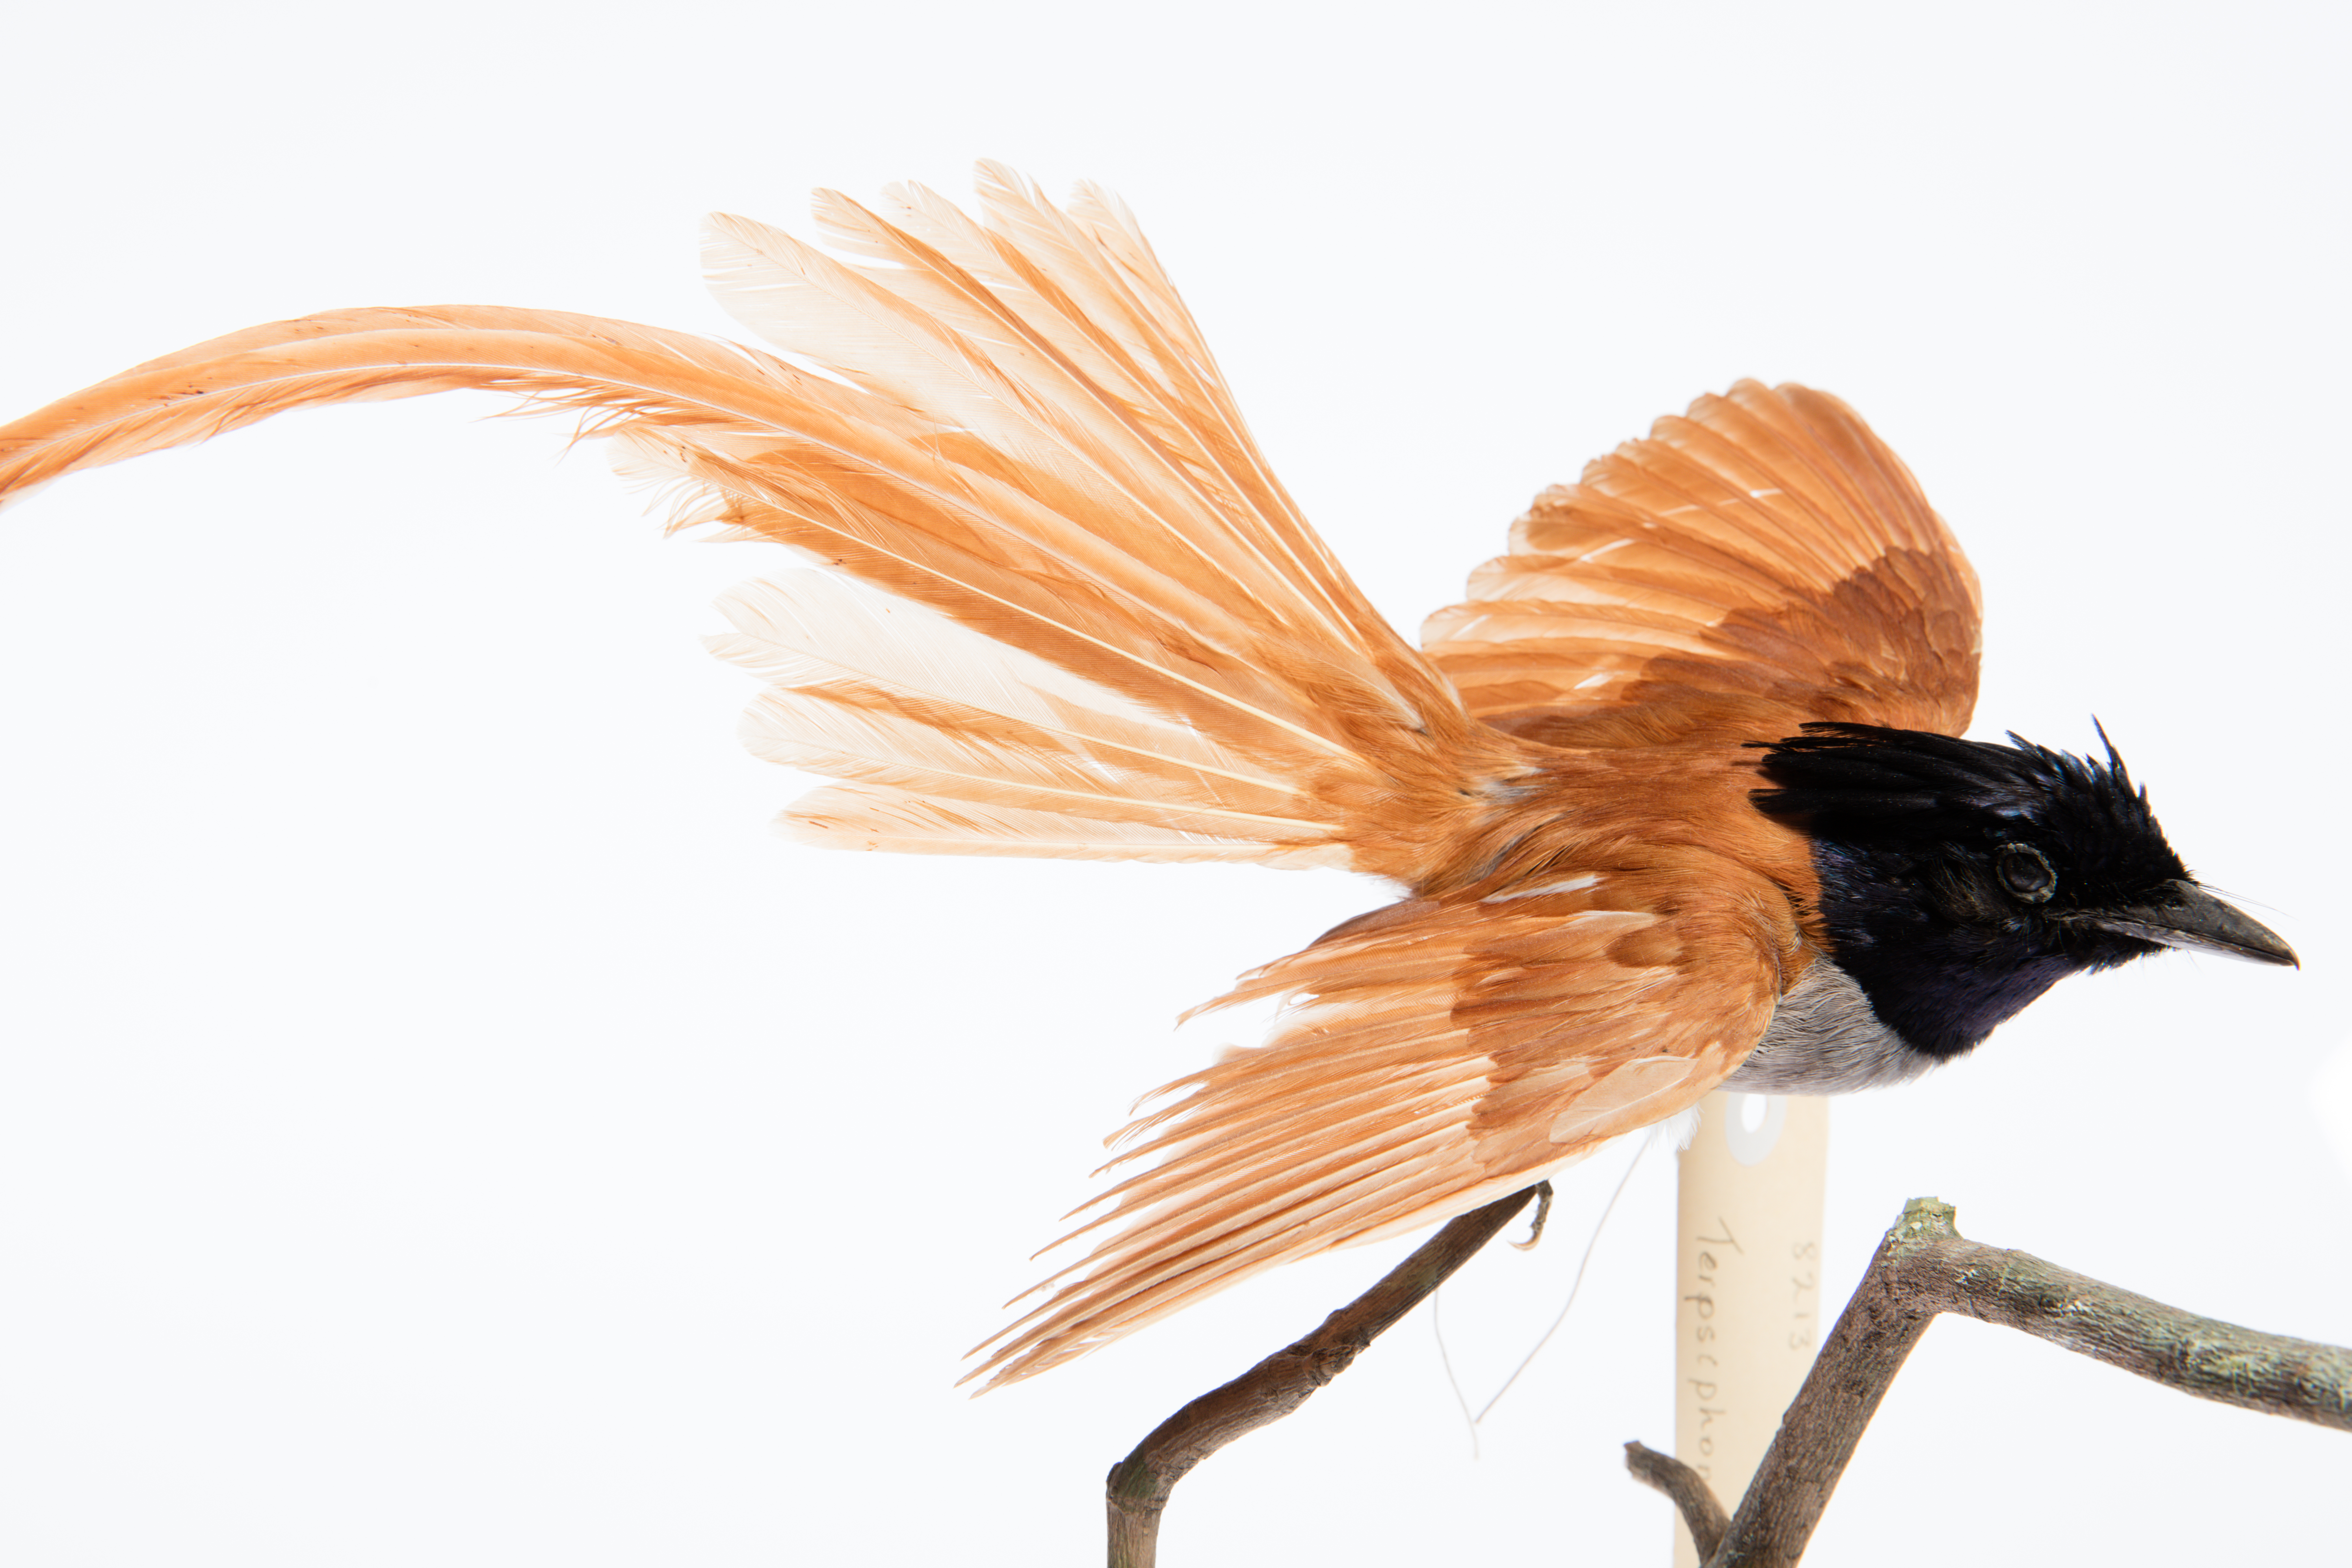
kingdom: Animalia
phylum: Chordata
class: Aves
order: Passeriformes
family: Monarchidae
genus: Terpsiphone
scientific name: Terpsiphone paradisi
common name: Indian paradise flycatcher
